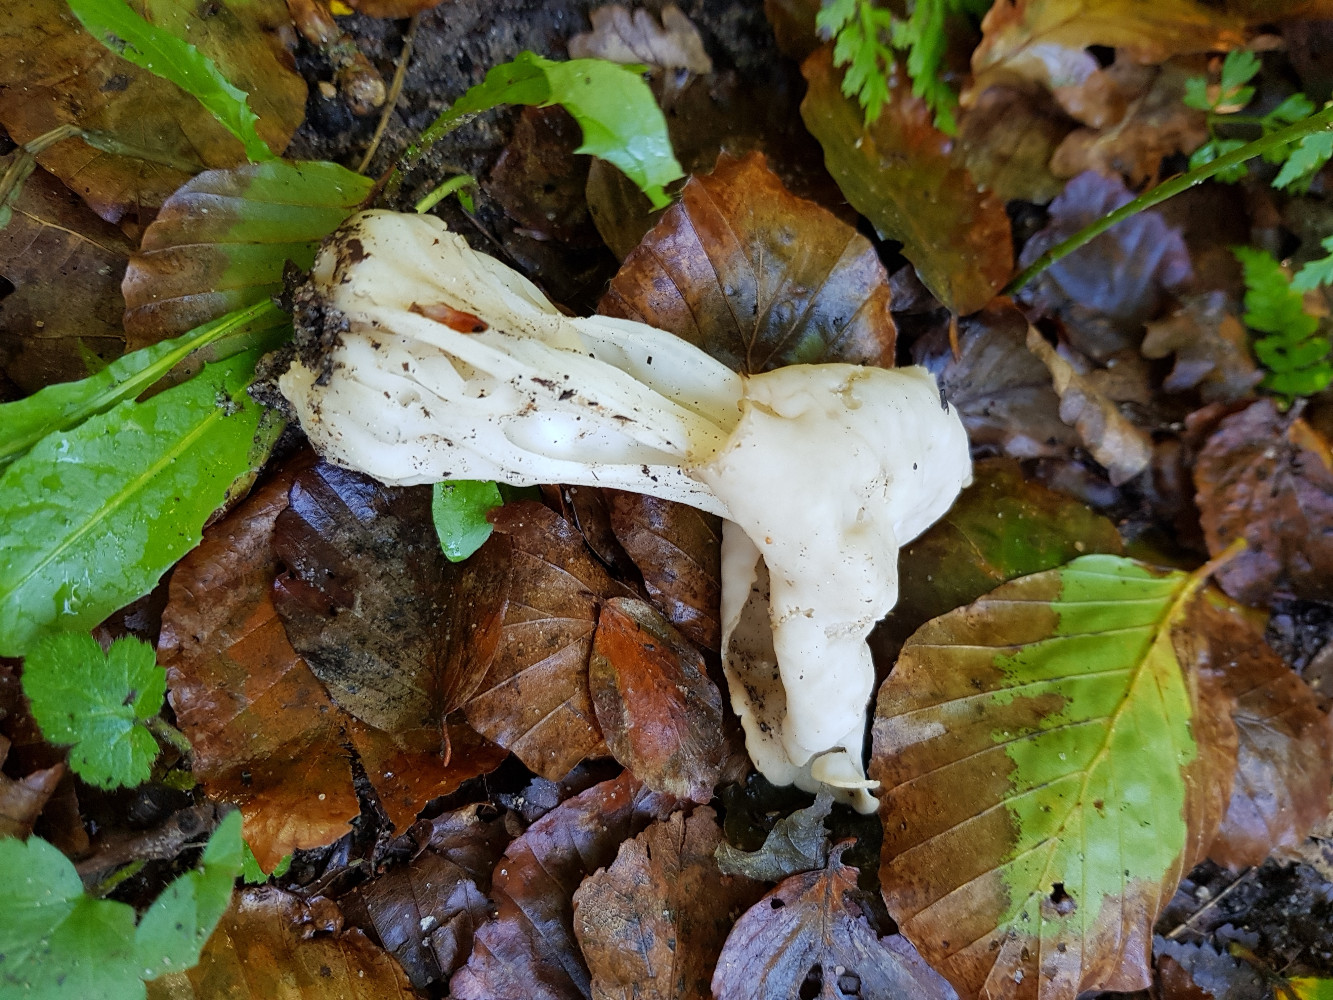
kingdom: Fungi
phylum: Ascomycota
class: Pezizomycetes
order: Pezizales
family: Helvellaceae
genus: Helvella
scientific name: Helvella crispa
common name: kruset foldhat
